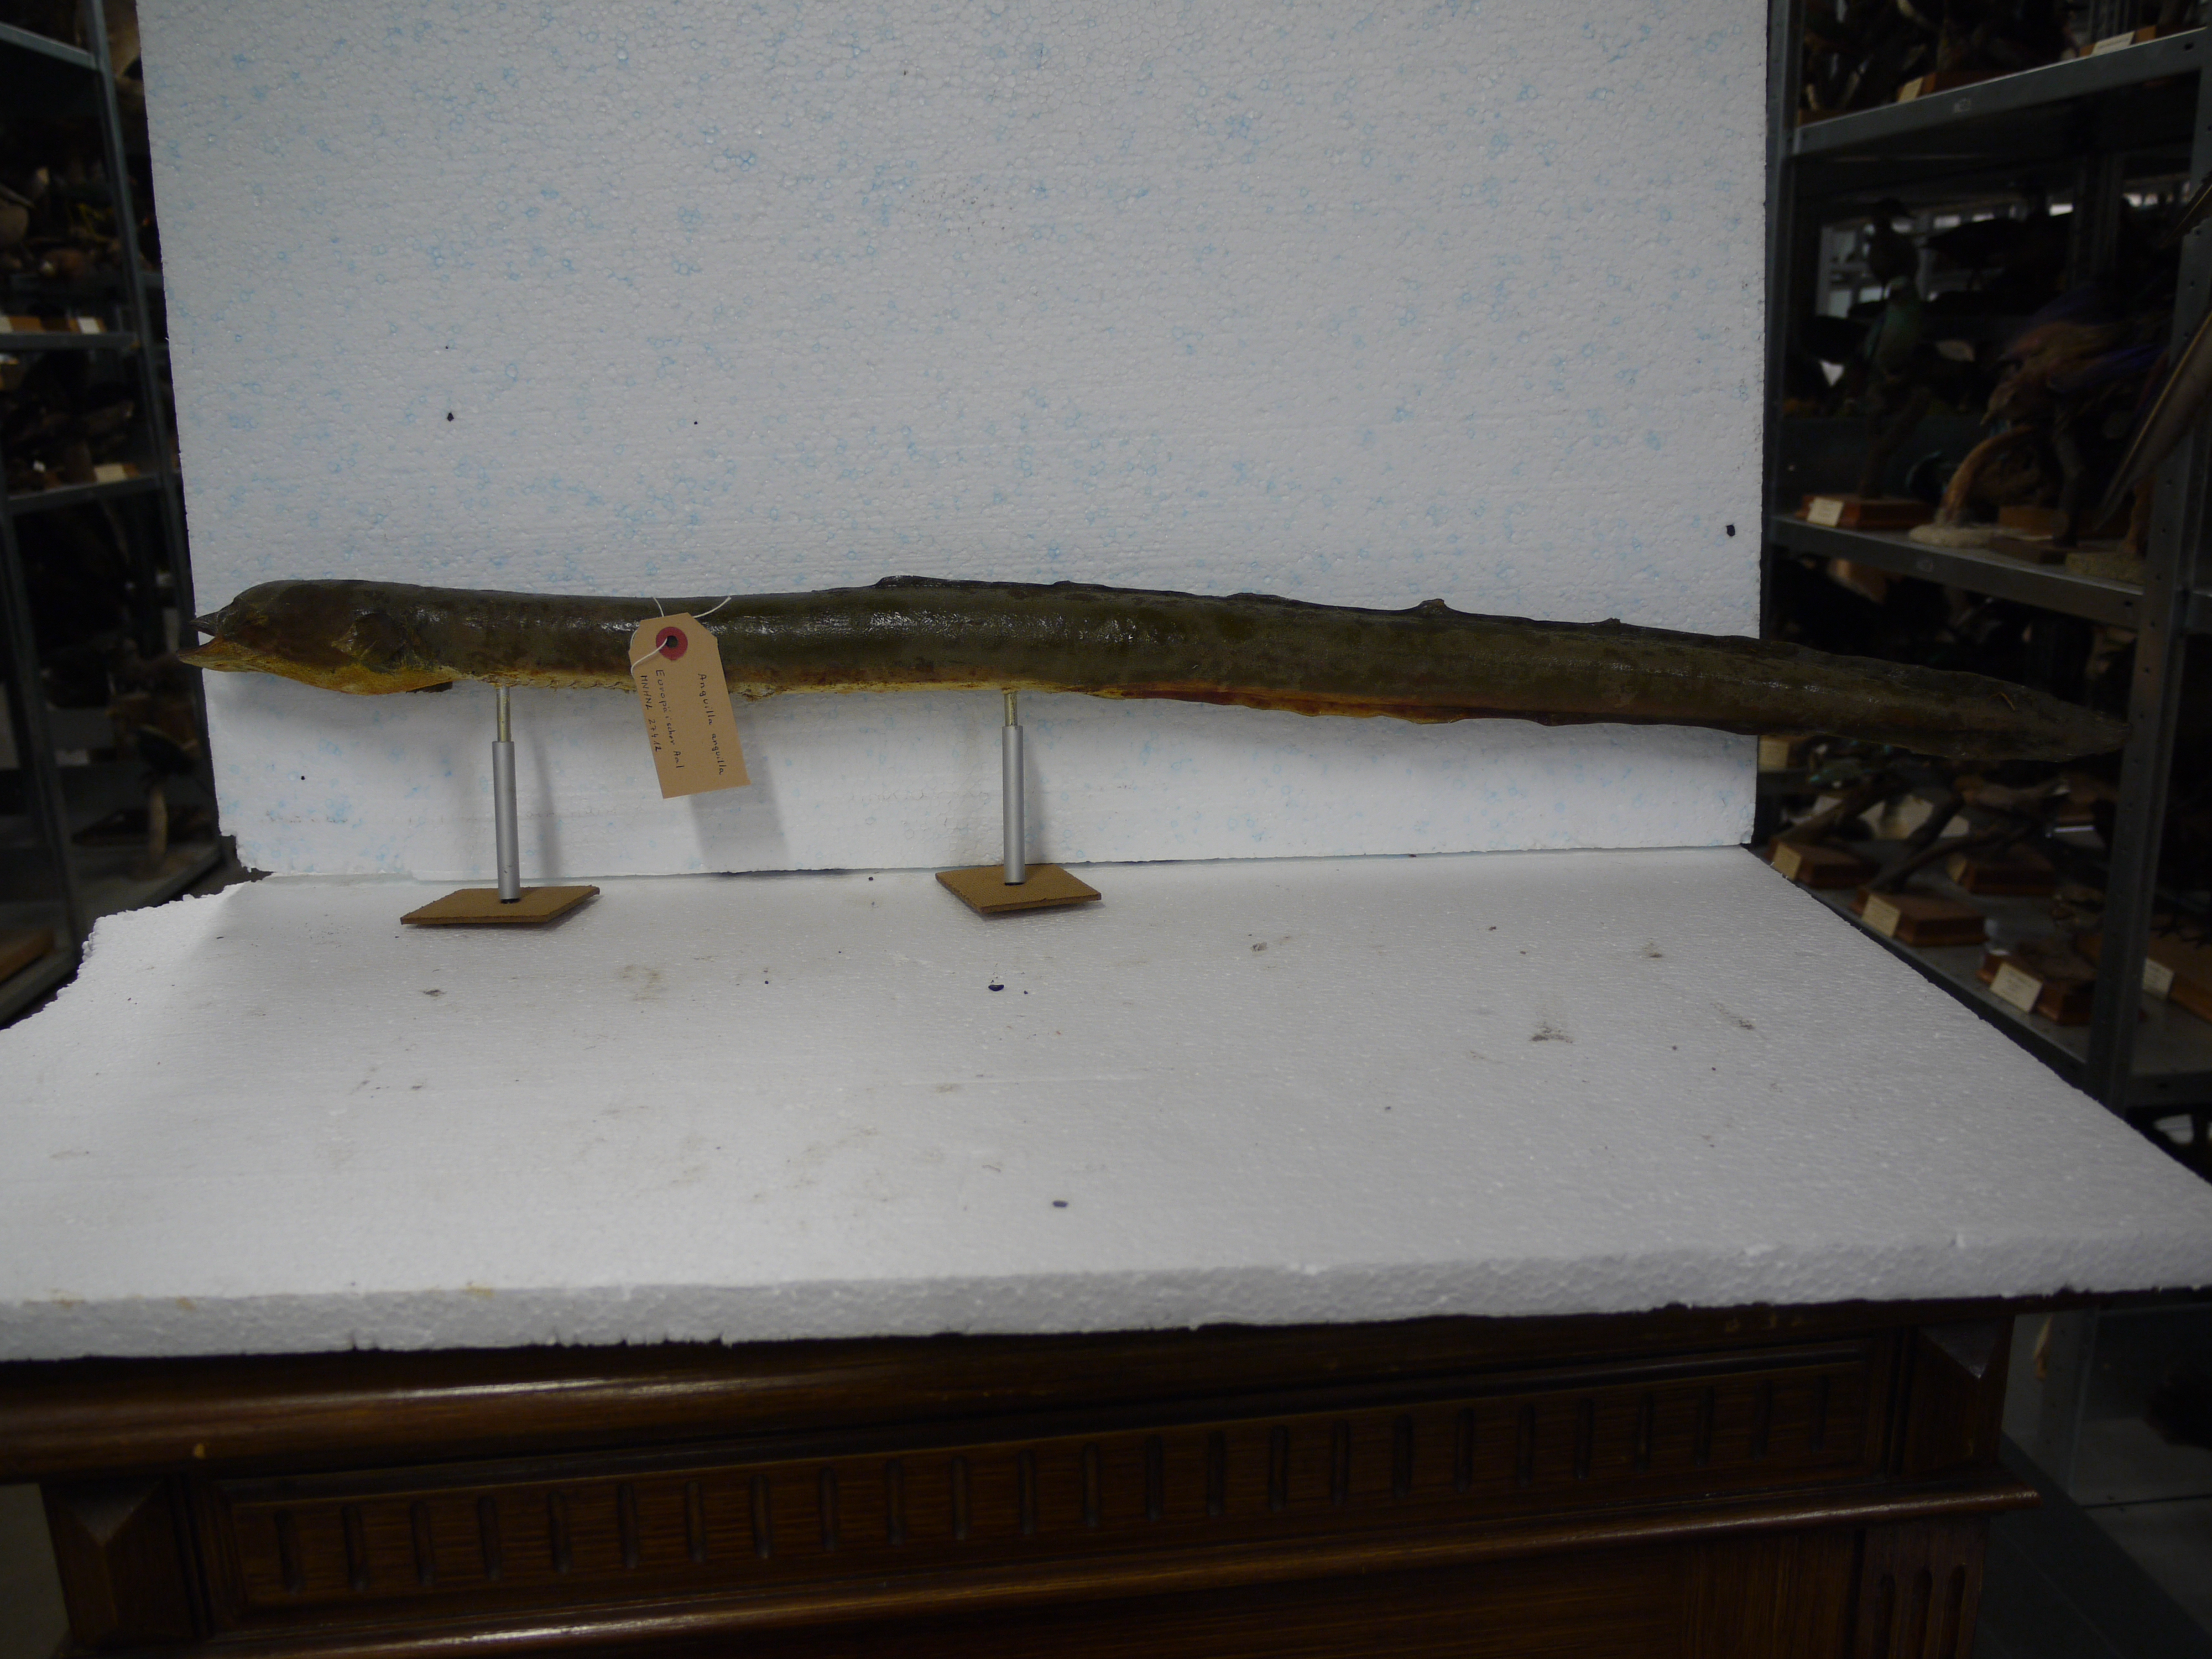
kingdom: Animalia
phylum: Chordata
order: Anguilliformes
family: Anguillidae
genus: Anguilla
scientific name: Anguilla anguilla
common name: European eel
